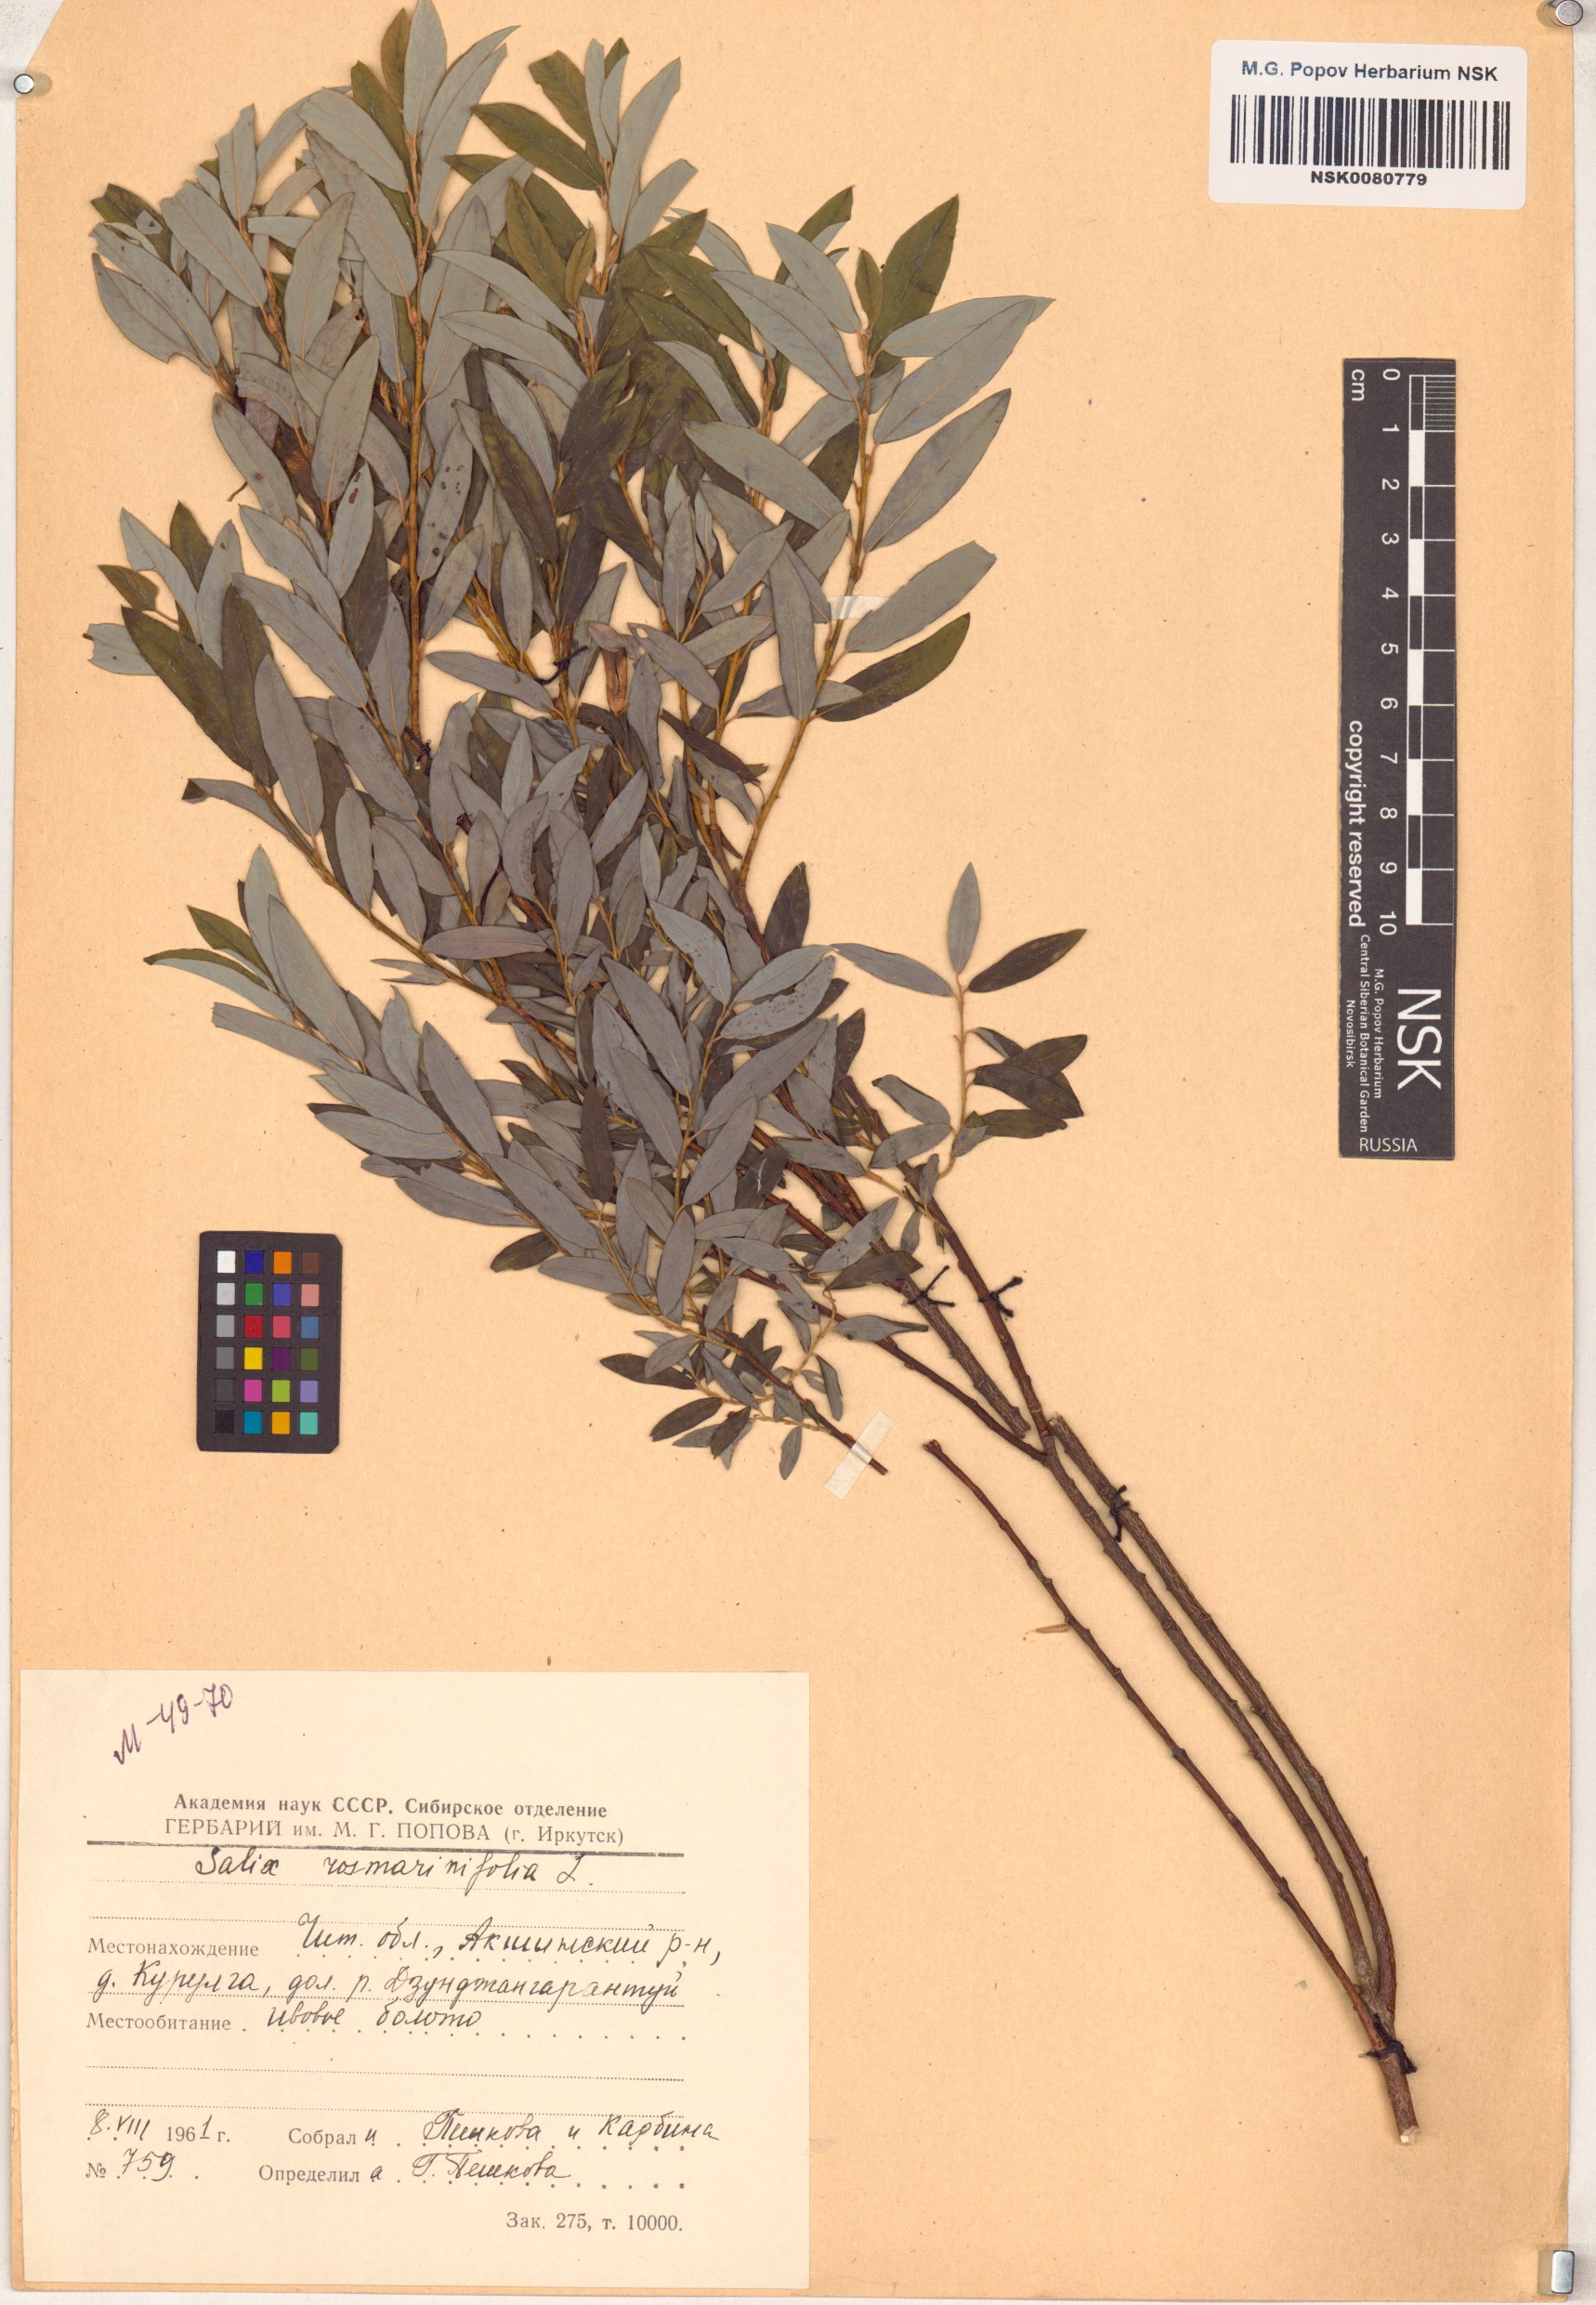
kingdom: Plantae
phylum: Tracheophyta
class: Magnoliopsida
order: Malpighiales
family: Salicaceae
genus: Salix
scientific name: Salix rosmarinifolia
